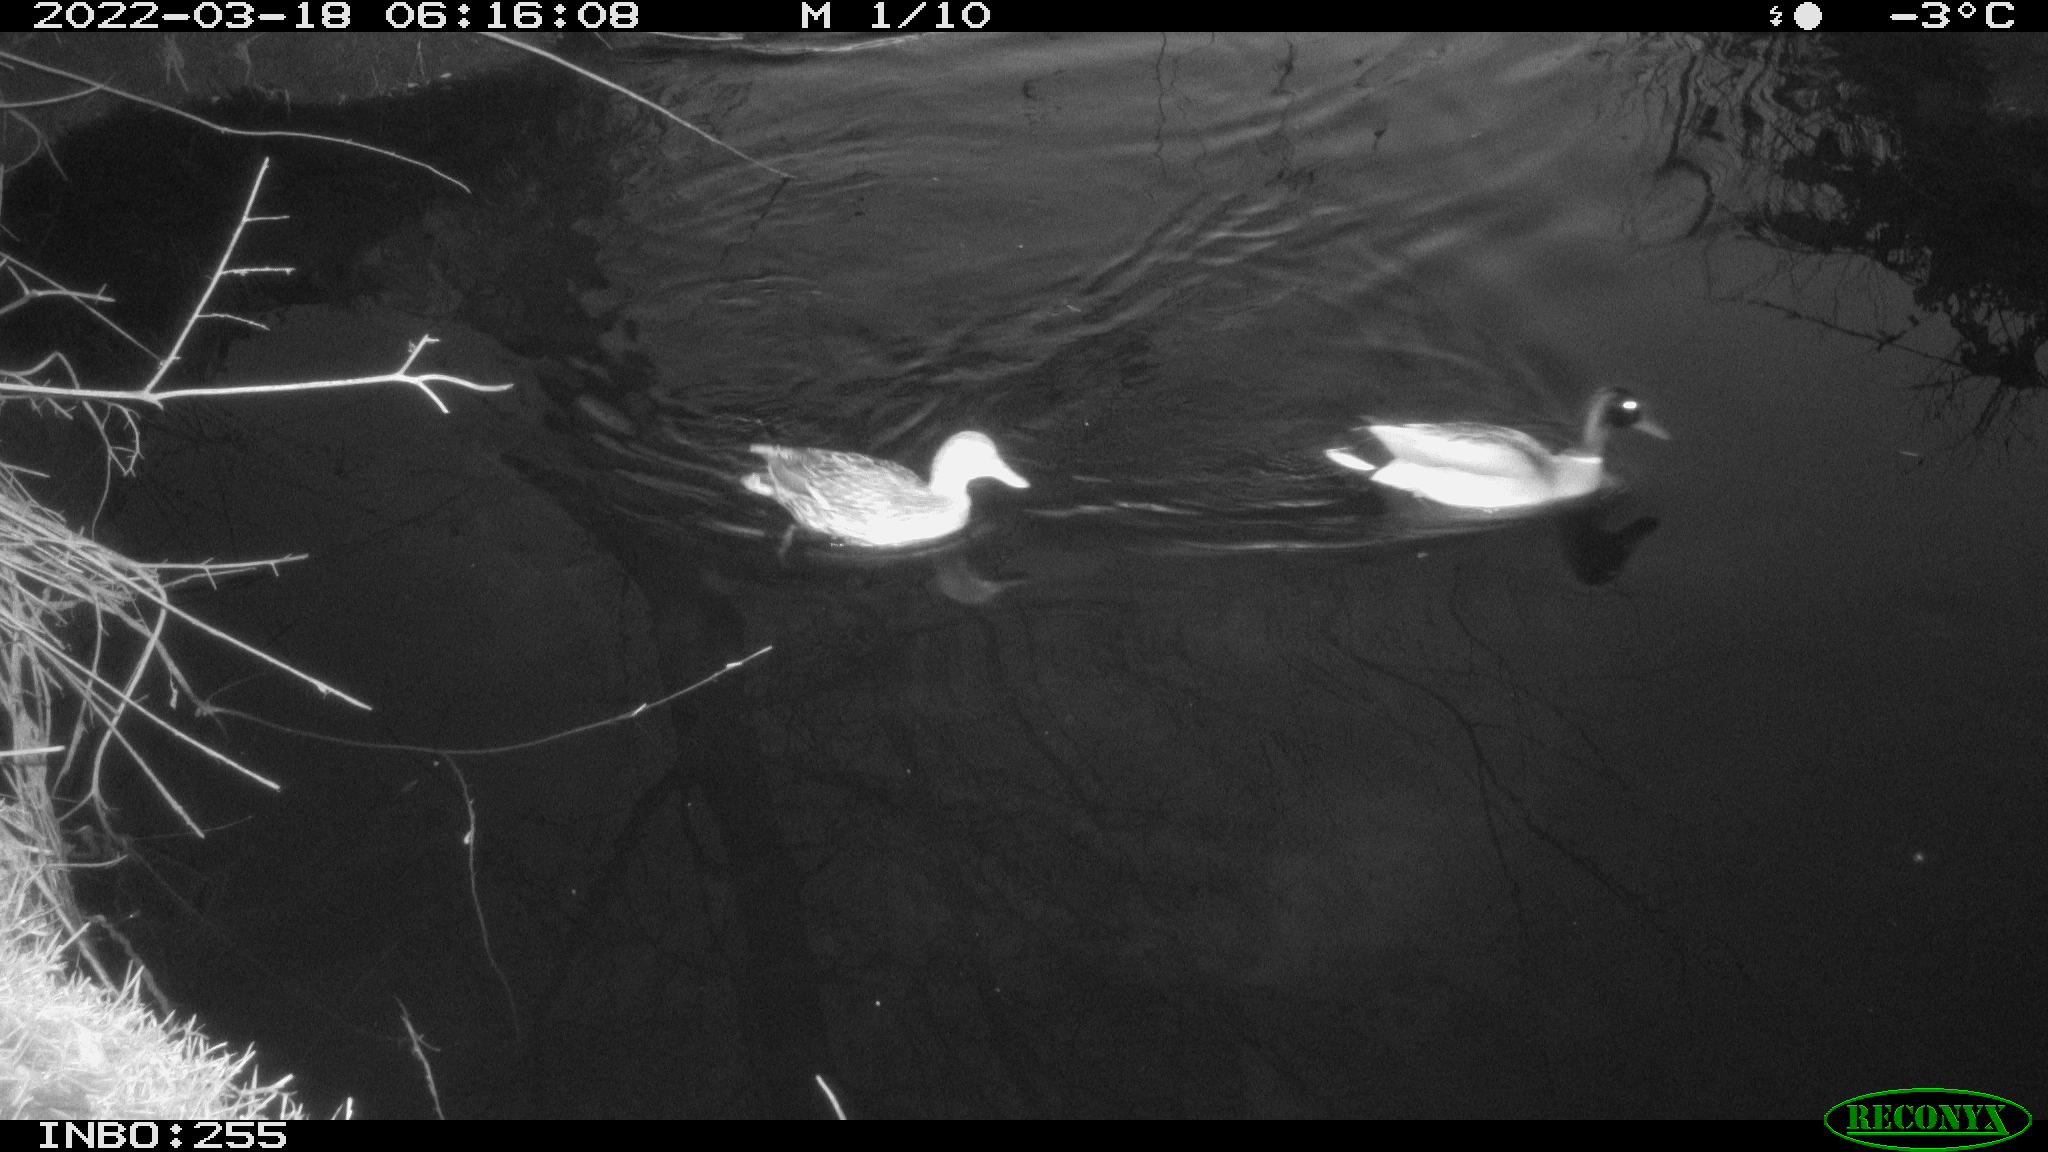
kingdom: Animalia
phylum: Chordata
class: Aves
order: Anseriformes
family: Anatidae
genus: Anas
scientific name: Anas platyrhynchos
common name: Mallard
